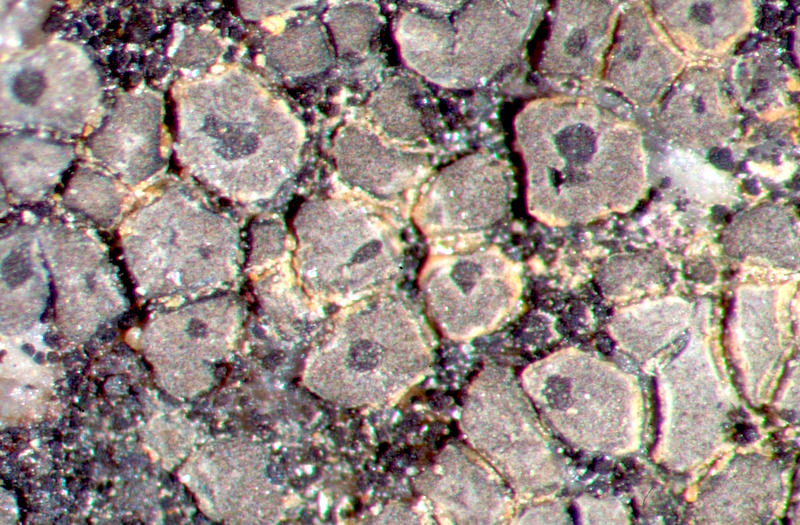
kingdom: Fungi
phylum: Ascomycota
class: Lecanoromycetes
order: Teloschistales
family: Teloschistaceae
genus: Neobrownliella
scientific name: Neobrownliella cinnabarina
